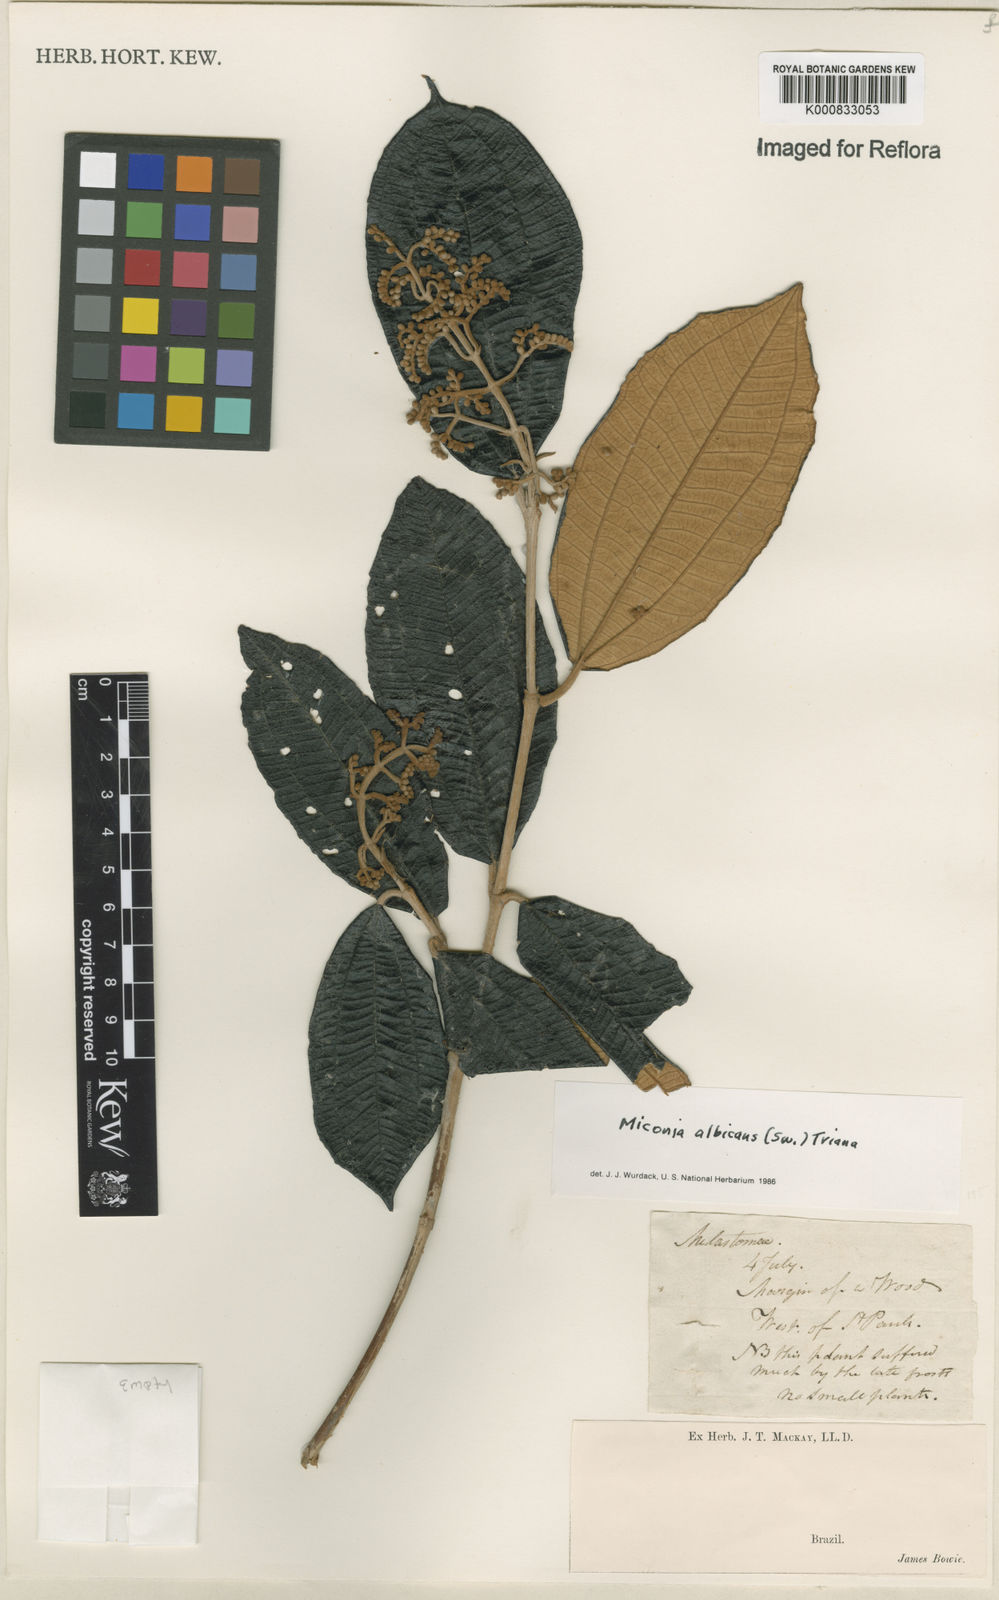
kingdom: Plantae
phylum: Tracheophyta
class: Magnoliopsida
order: Myrtales
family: Melastomataceae
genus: Miconia
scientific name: Miconia albicans
